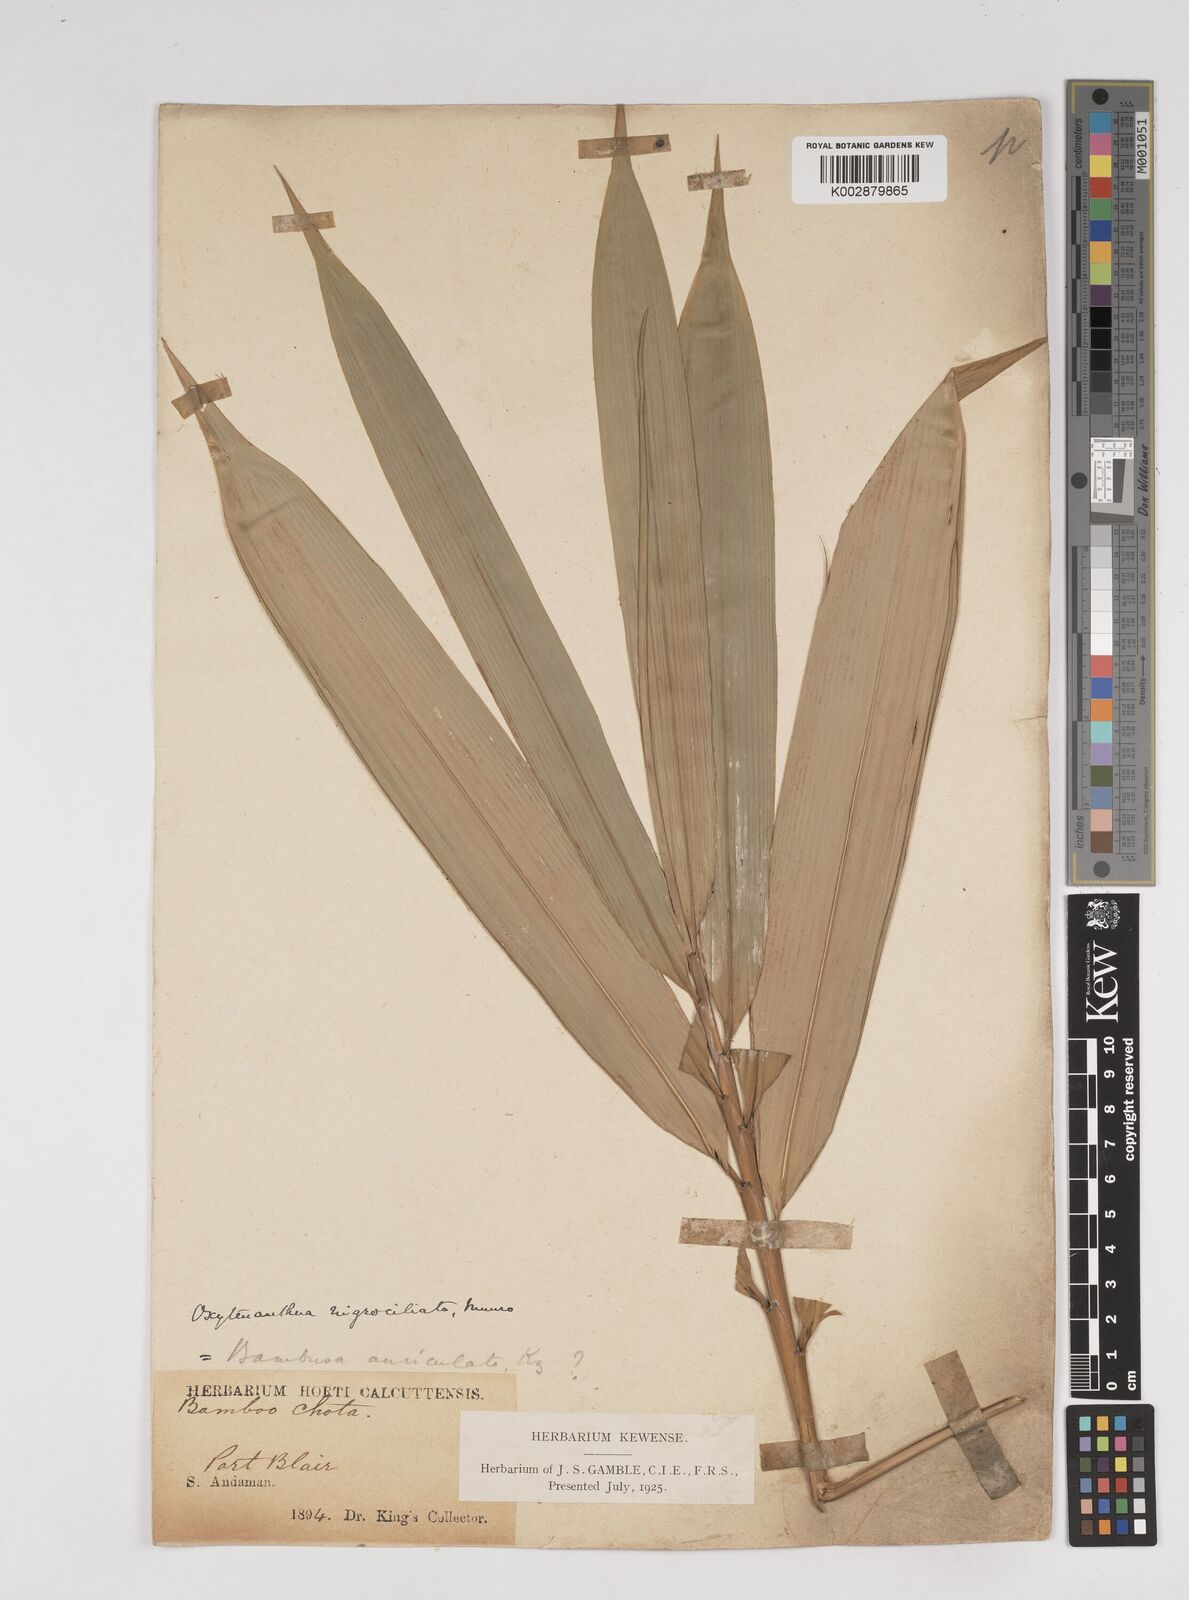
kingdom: Plantae
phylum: Tracheophyta
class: Liliopsida
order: Poales
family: Poaceae
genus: Gigantochloa
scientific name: Gigantochloa
